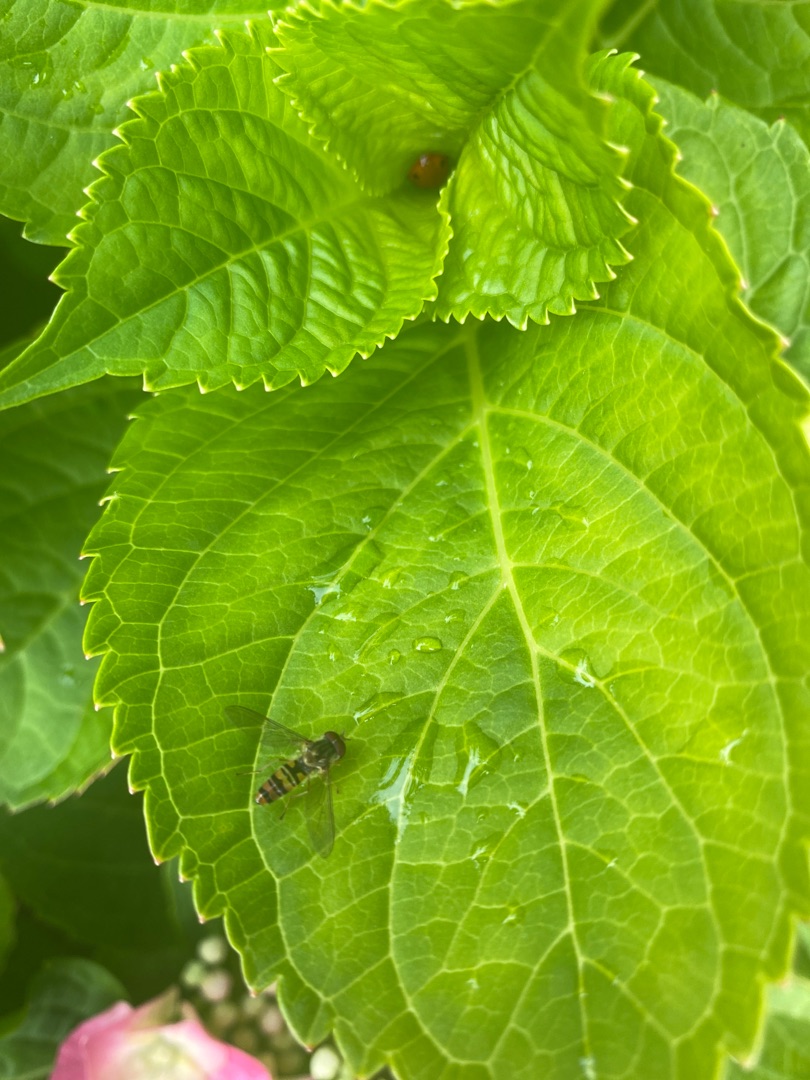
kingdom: Animalia
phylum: Arthropoda
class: Insecta
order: Diptera
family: Syrphidae
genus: Episyrphus
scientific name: Episyrphus balteatus
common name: Dobbeltbåndet svirreflue
